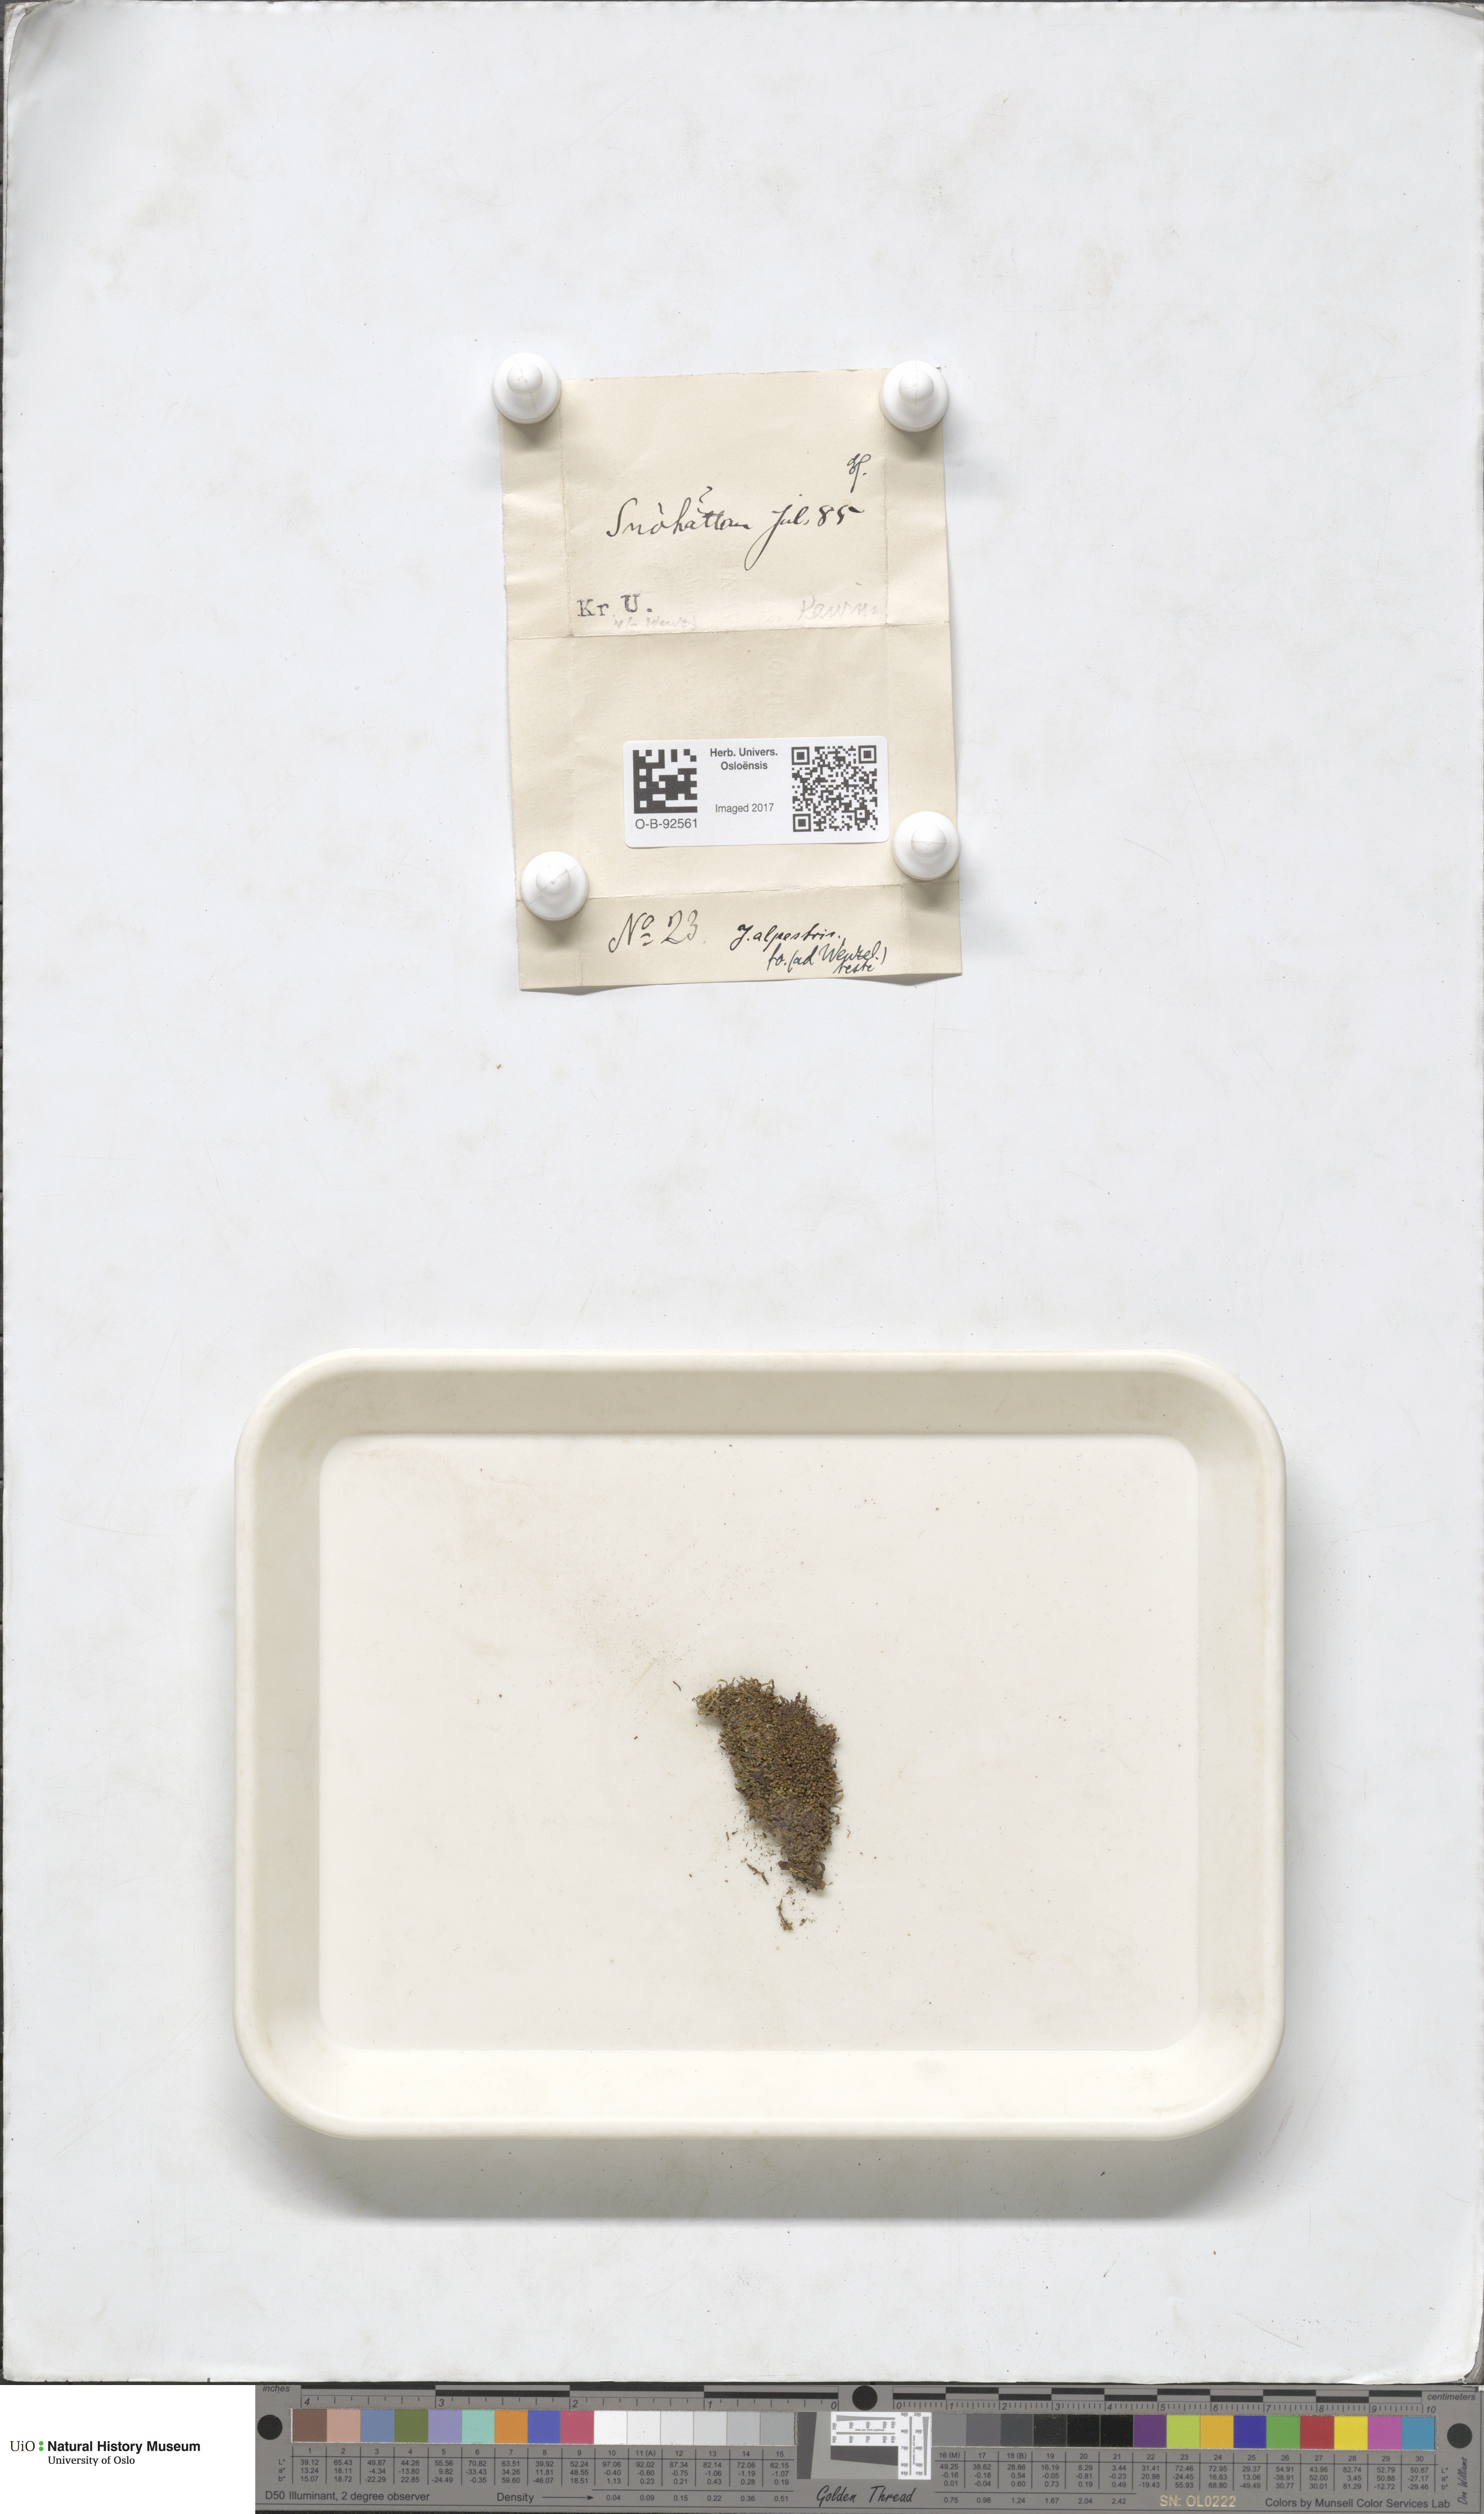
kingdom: Plantae
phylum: Marchantiophyta
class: Jungermanniopsida
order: Jungermanniales
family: Lophoziaceae
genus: Lophozia
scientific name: Lophozia
